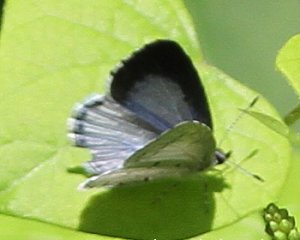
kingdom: Animalia
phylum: Arthropoda
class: Insecta
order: Lepidoptera
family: Lycaenidae
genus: Cyaniris
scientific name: Cyaniris neglecta
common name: Summer Azure
